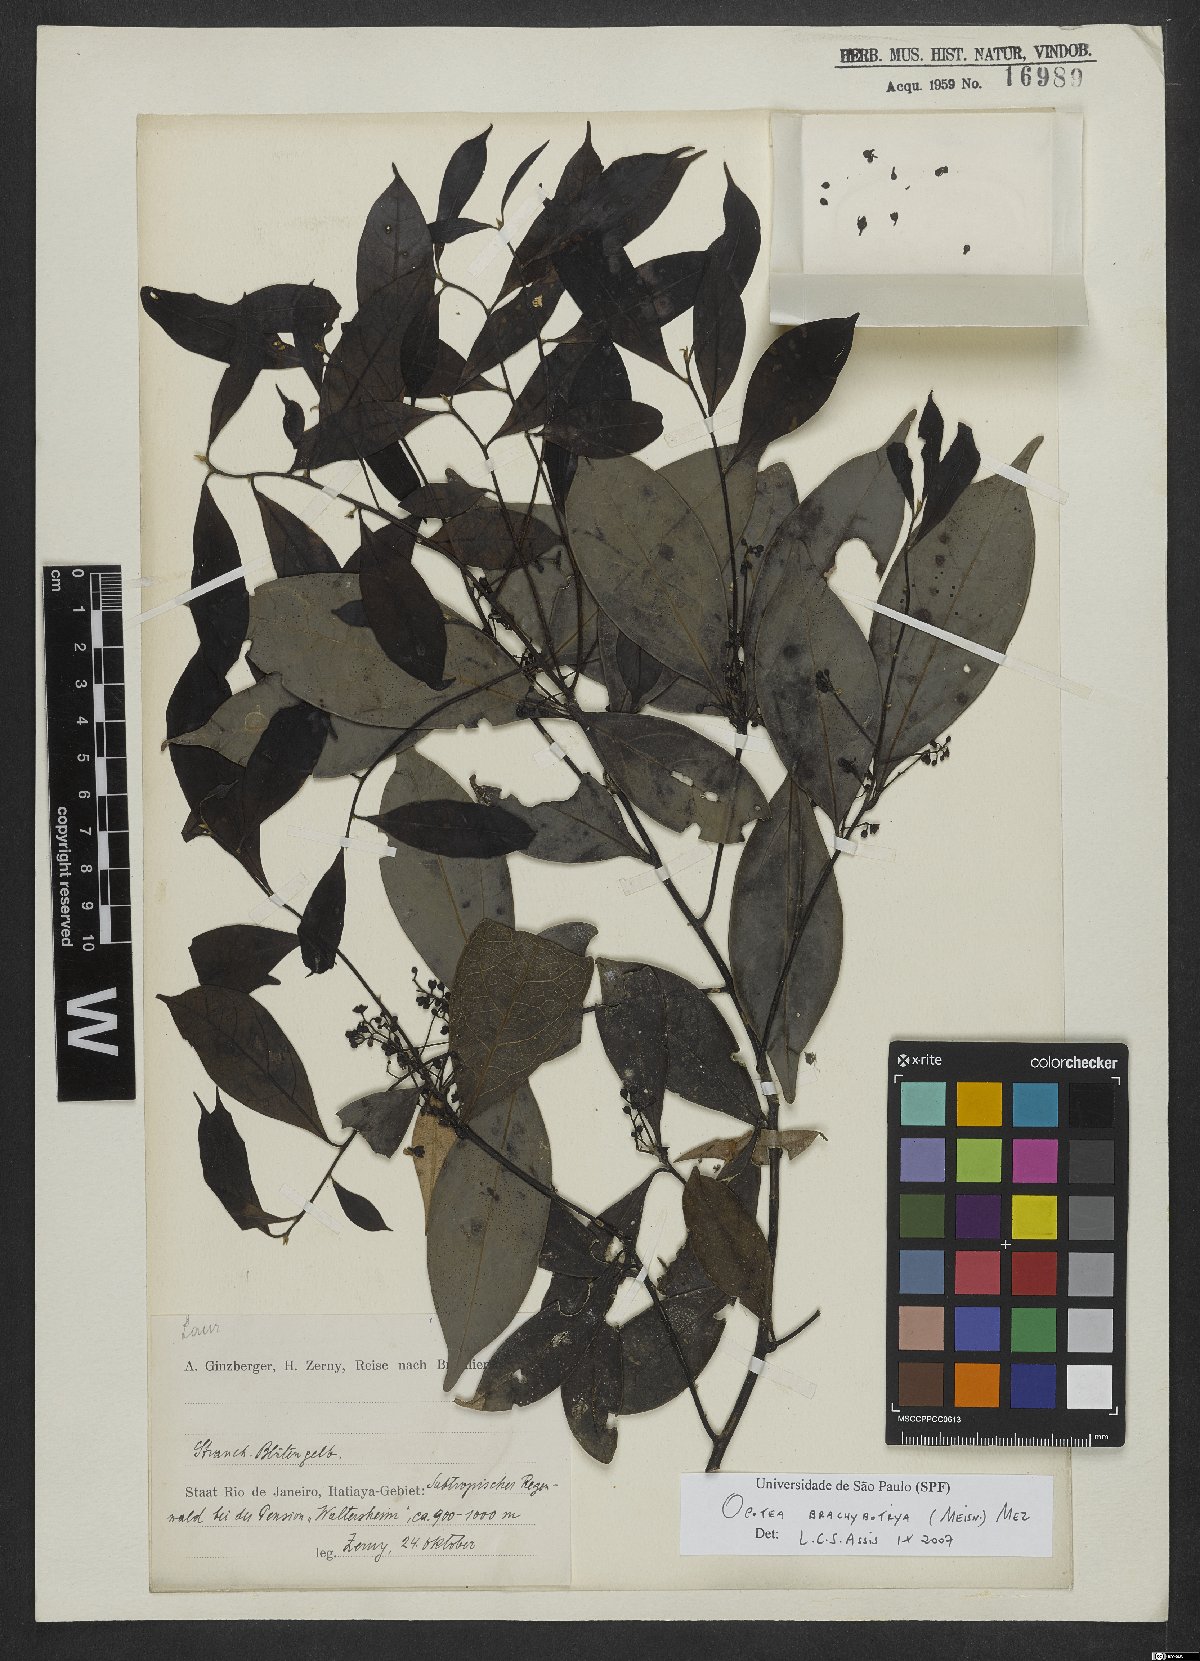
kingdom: Plantae
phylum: Tracheophyta
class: Magnoliopsida
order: Laurales
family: Lauraceae
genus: Ocotea
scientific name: Ocotea brachybotra
